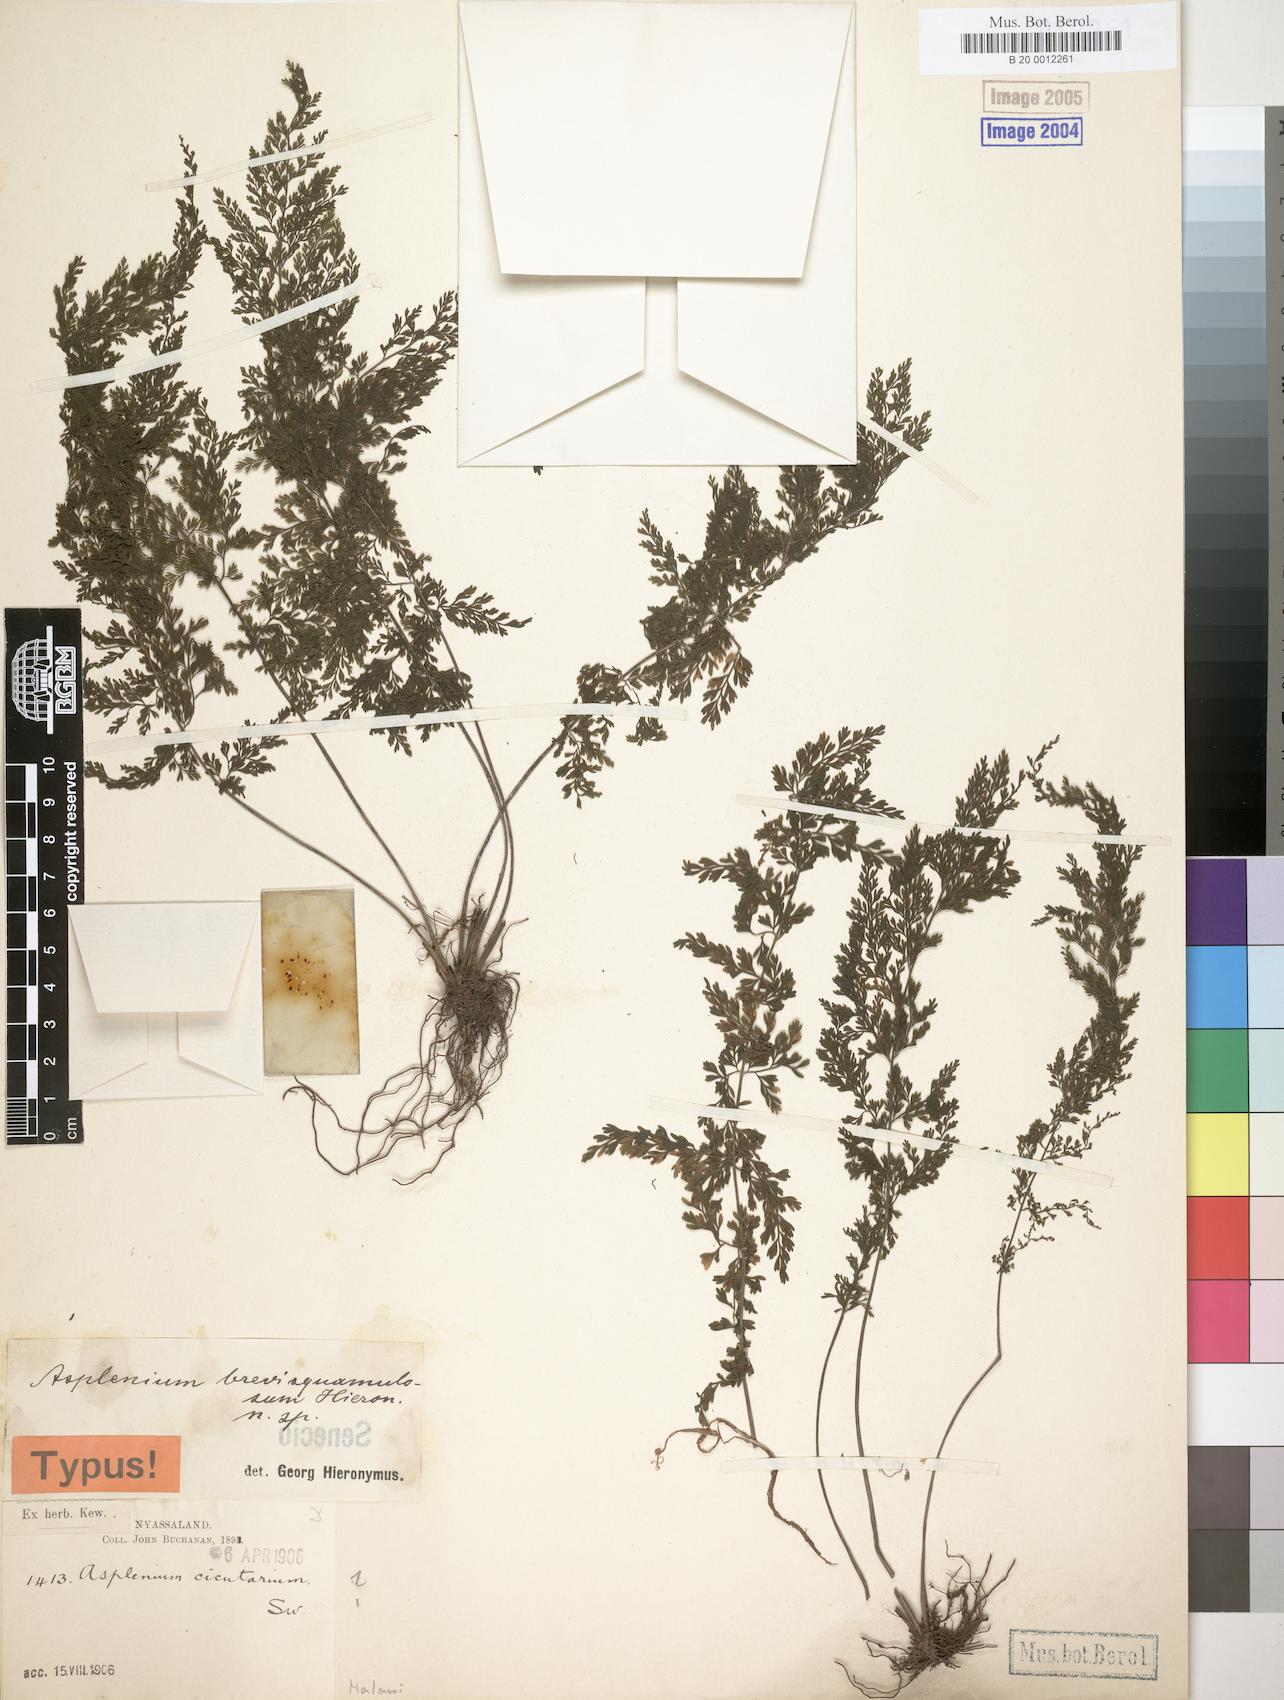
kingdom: Plantae
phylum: Tracheophyta
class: Polypodiopsida
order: Polypodiales
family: Aspleniaceae
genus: Asplenium
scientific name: Asplenium
